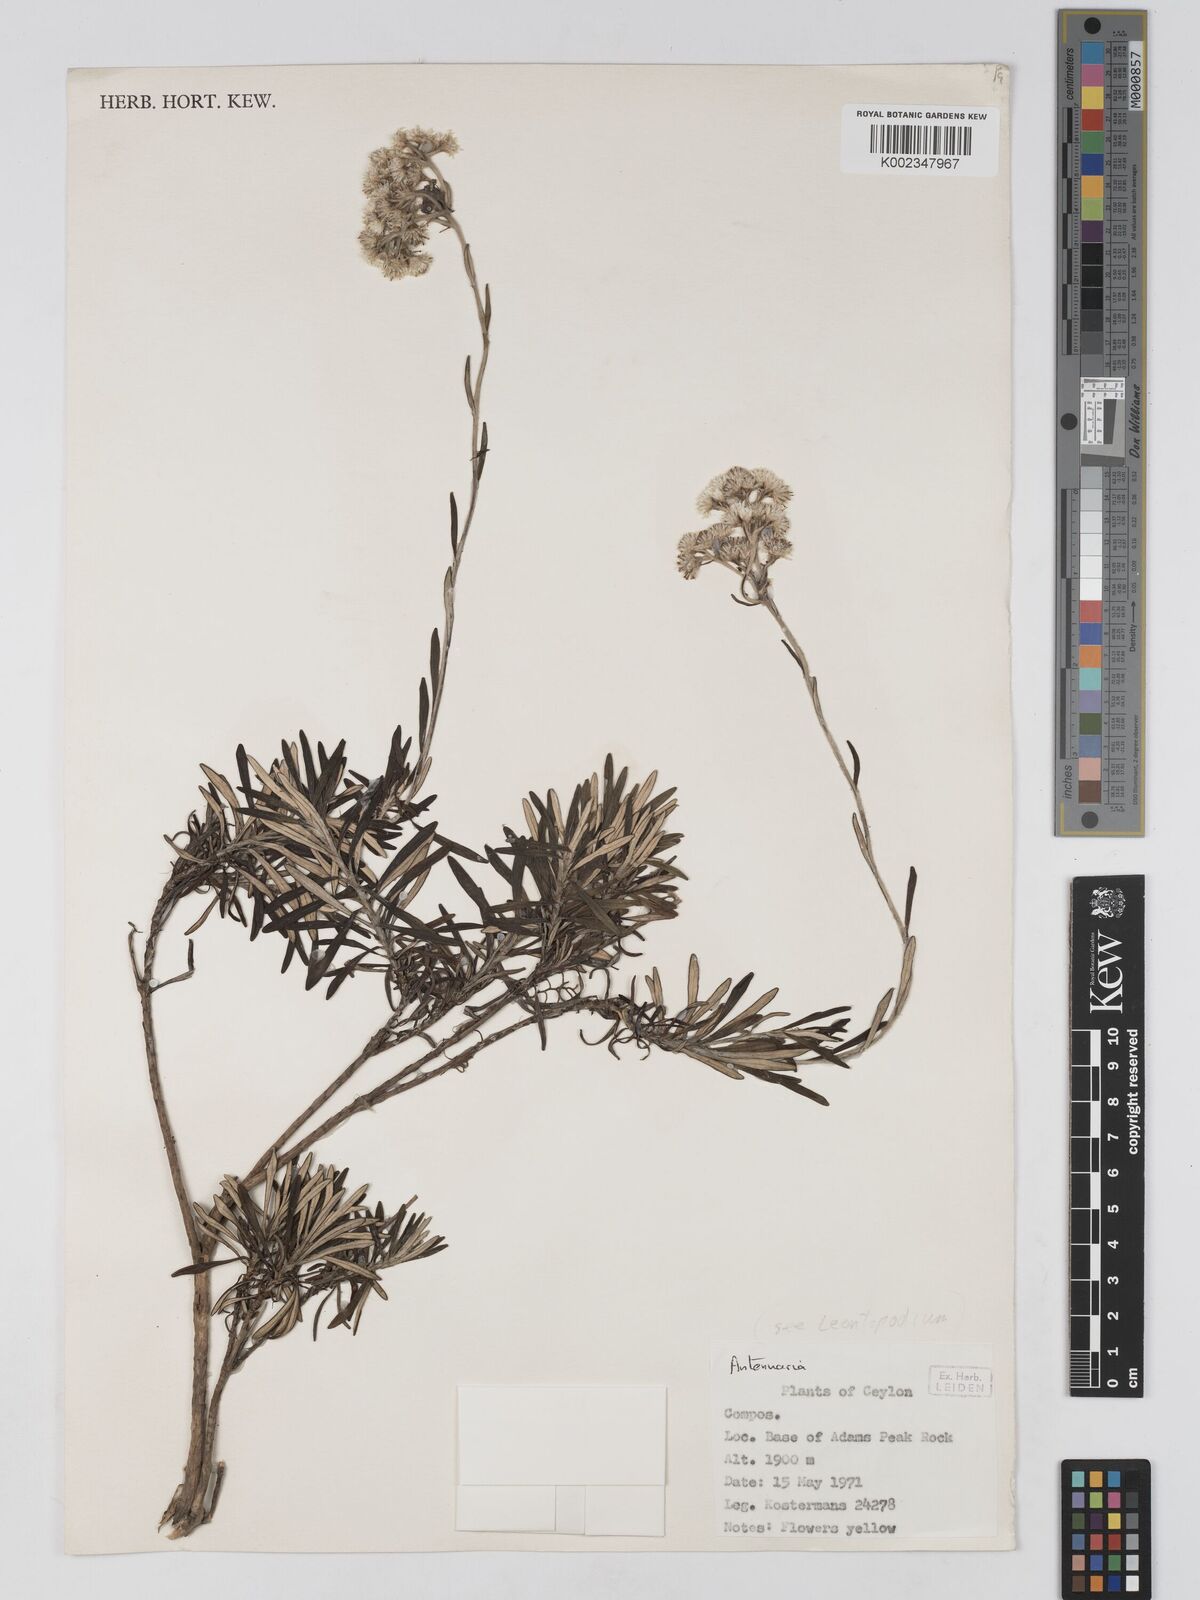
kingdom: Plantae
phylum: Tracheophyta
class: Magnoliopsida
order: Asterales
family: Asteraceae
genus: Anaphalis
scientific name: Anaphalis
